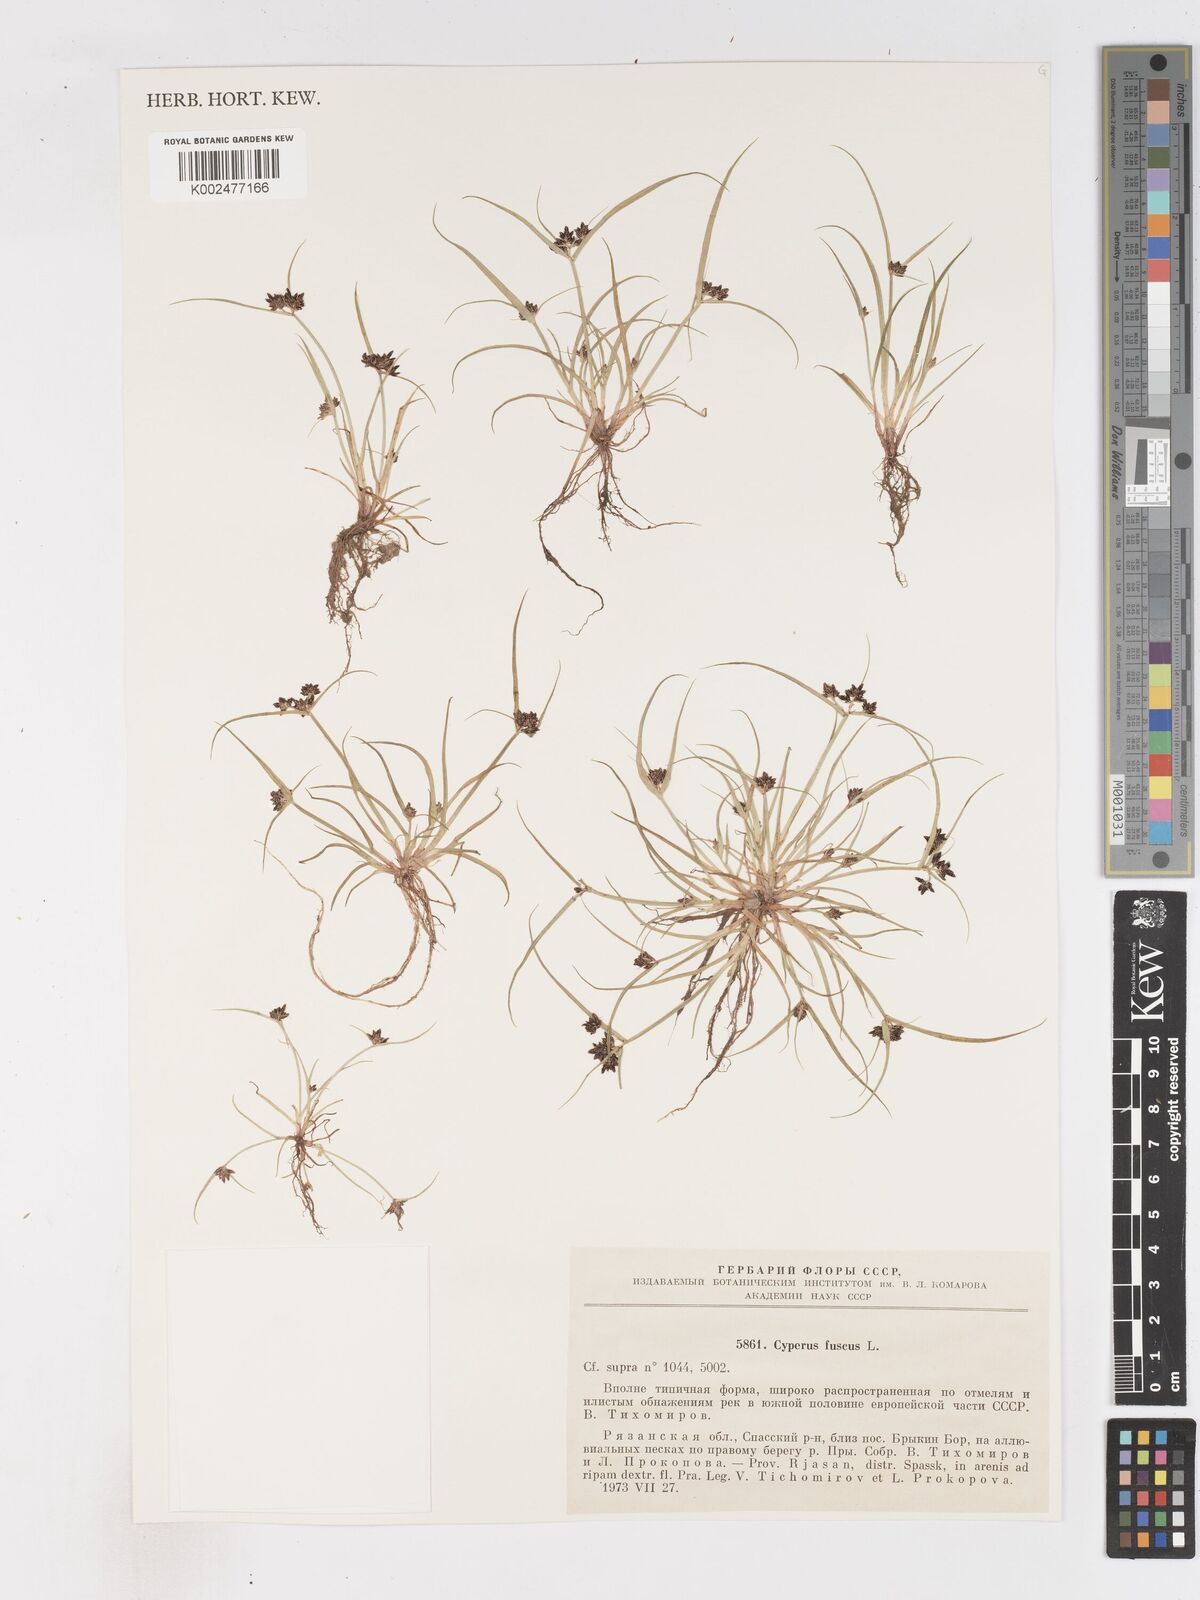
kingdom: Plantae
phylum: Tracheophyta
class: Liliopsida
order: Poales
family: Cyperaceae
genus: Cyperus
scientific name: Cyperus fuscus
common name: Brown galingale
